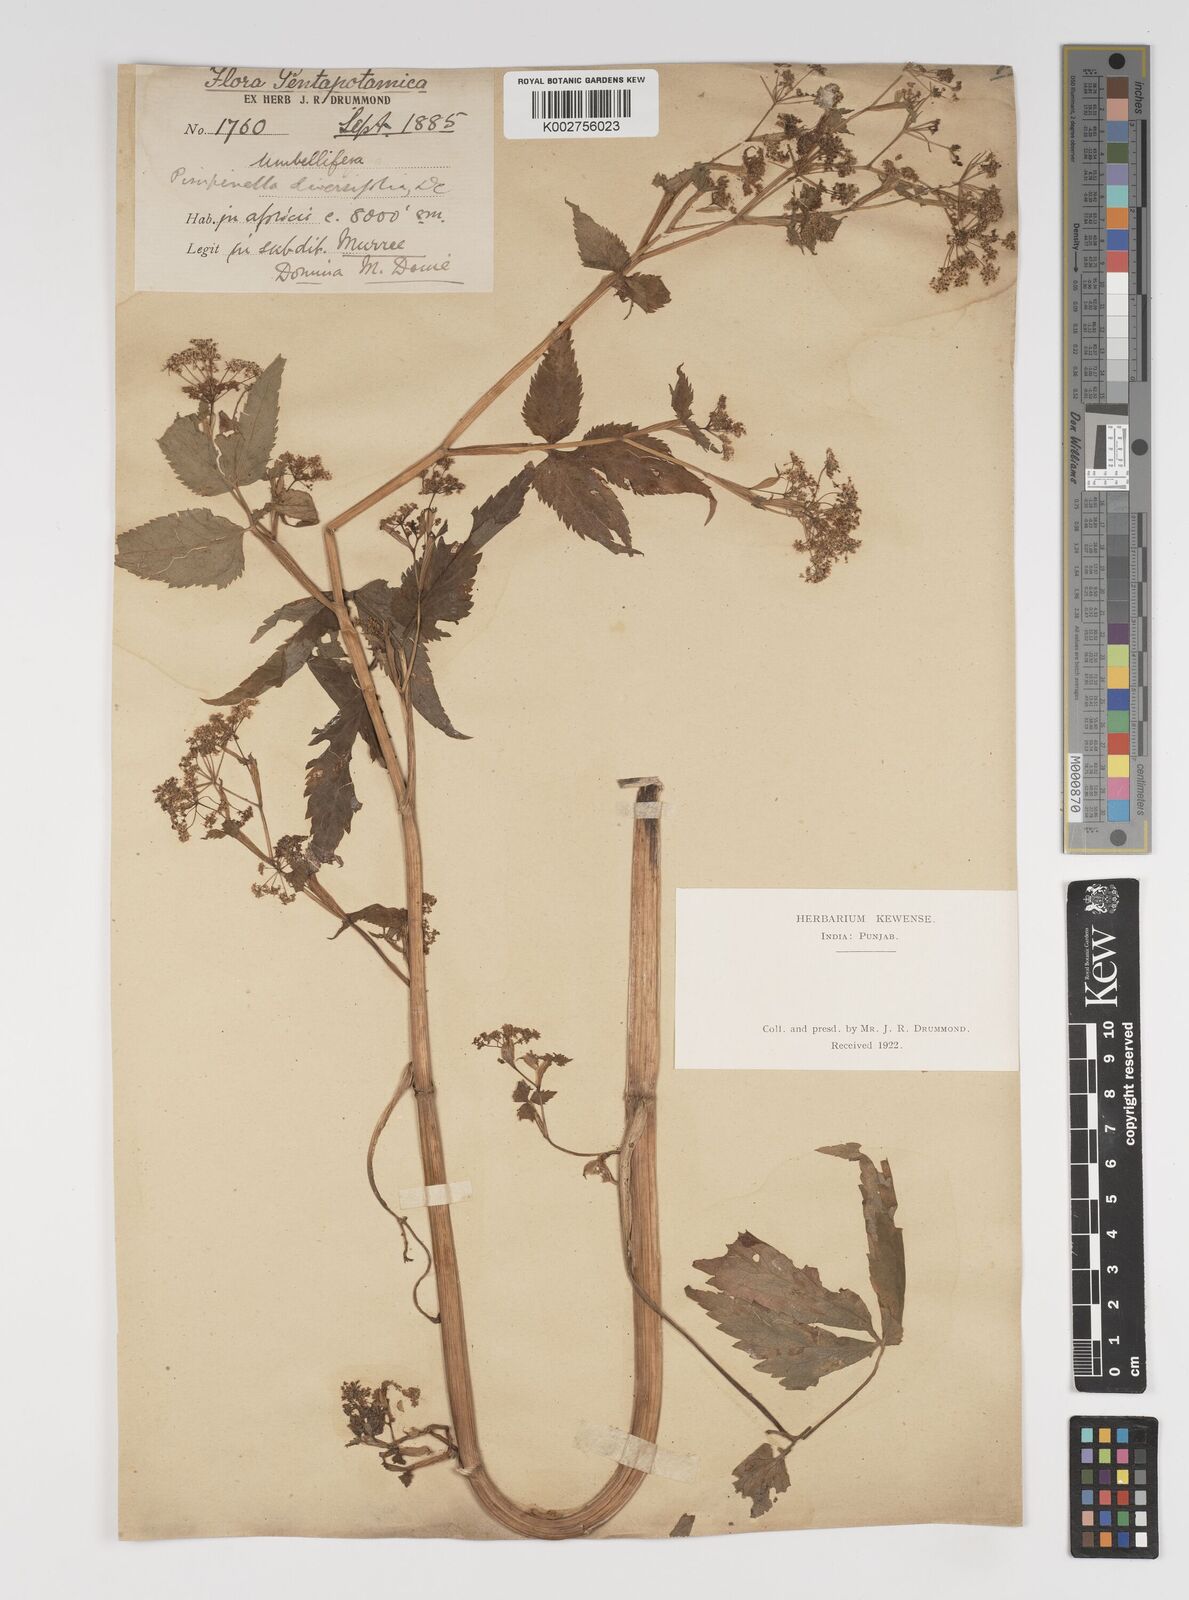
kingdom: Plantae
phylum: Tracheophyta
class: Magnoliopsida
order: Apiales
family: Apiaceae
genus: Pimpinella
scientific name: Pimpinella diversifolia
